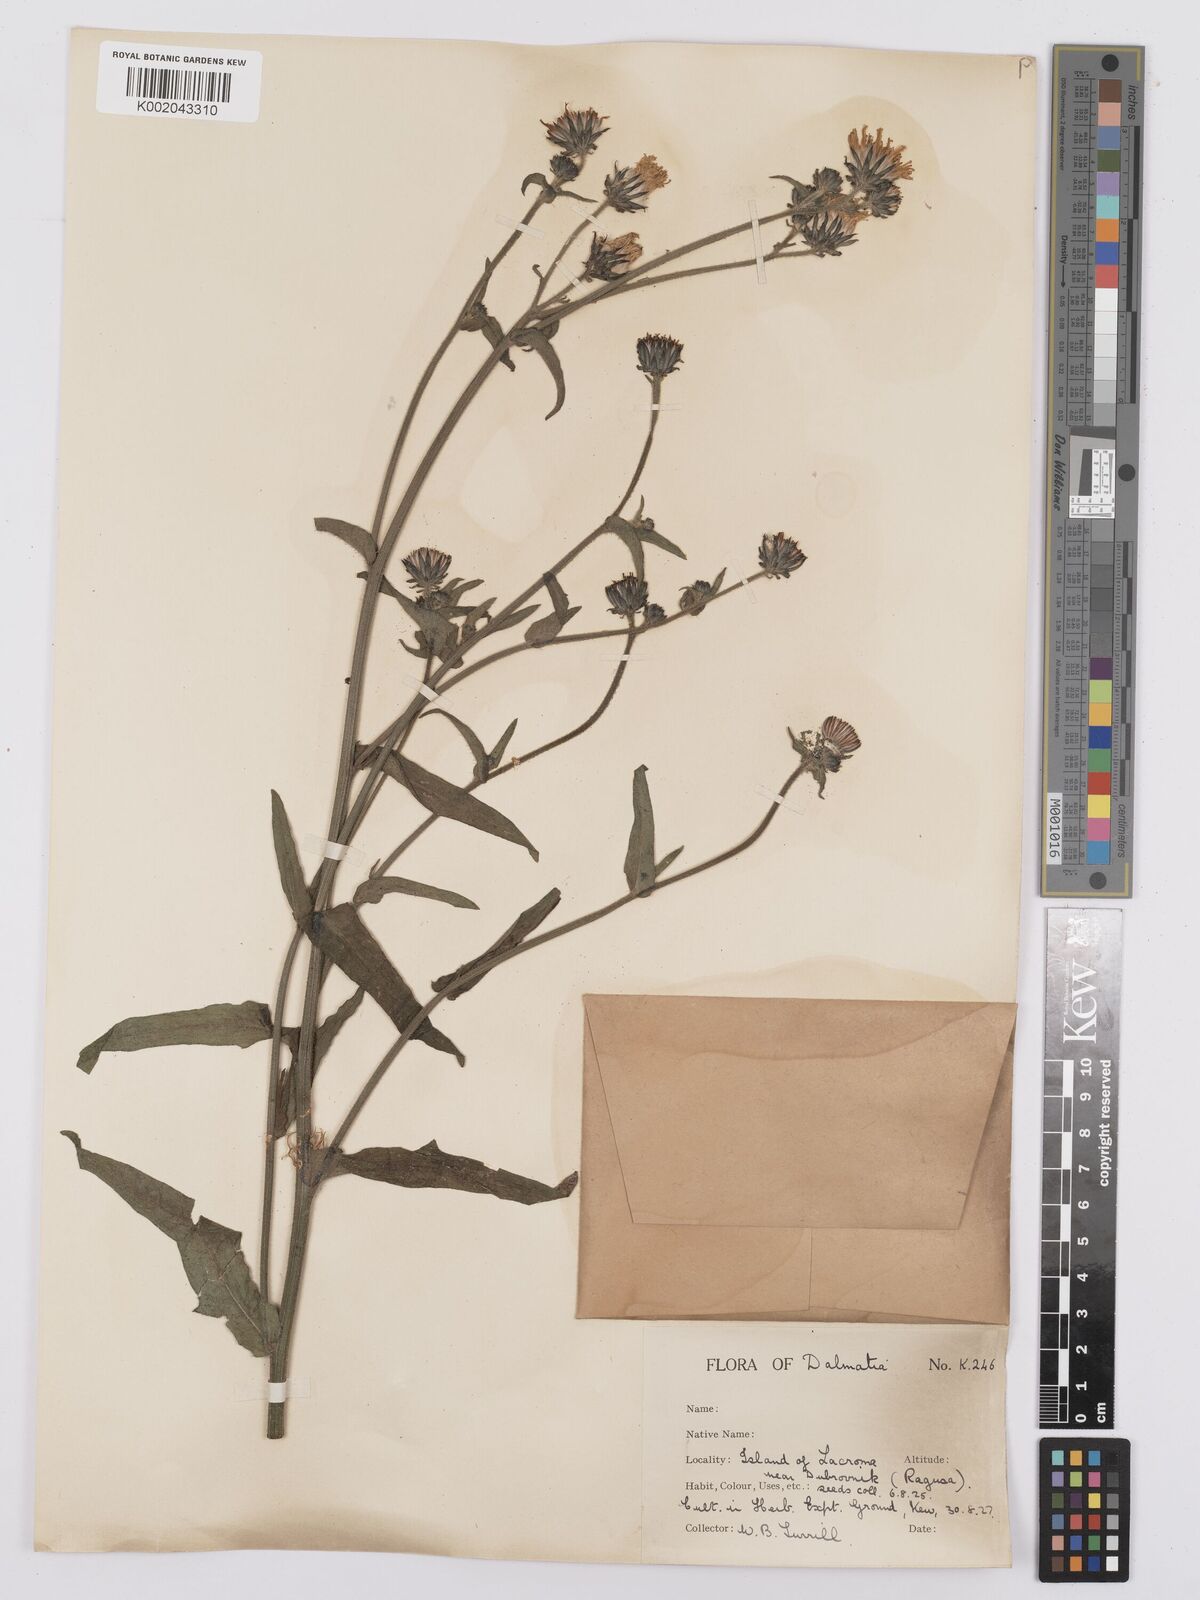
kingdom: Plantae
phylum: Tracheophyta
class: Magnoliopsida
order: Asterales
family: Asteraceae
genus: Picris
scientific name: Picris hieracioides
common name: Hawkweed oxtongue
